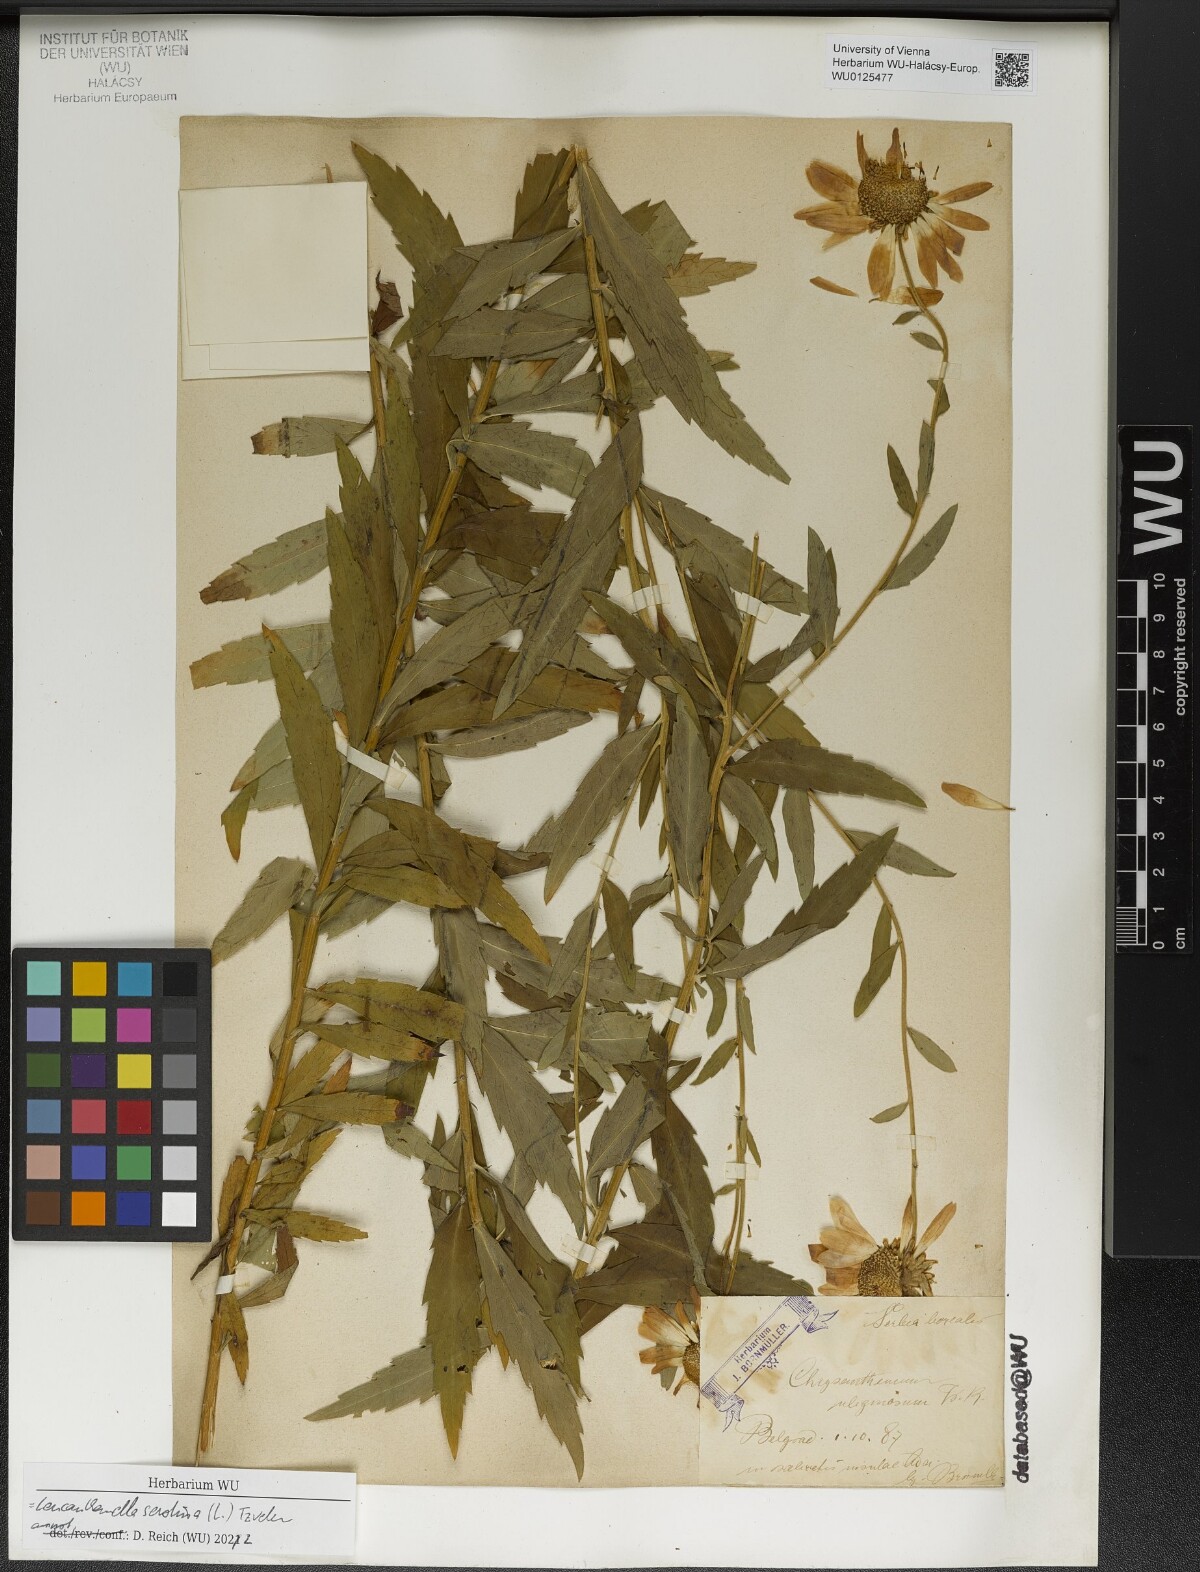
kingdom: Plantae
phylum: Tracheophyta
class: Magnoliopsida
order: Asterales
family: Asteraceae
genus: Leucanthemella
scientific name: Leucanthemella serotina
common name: Autumn oxeye
